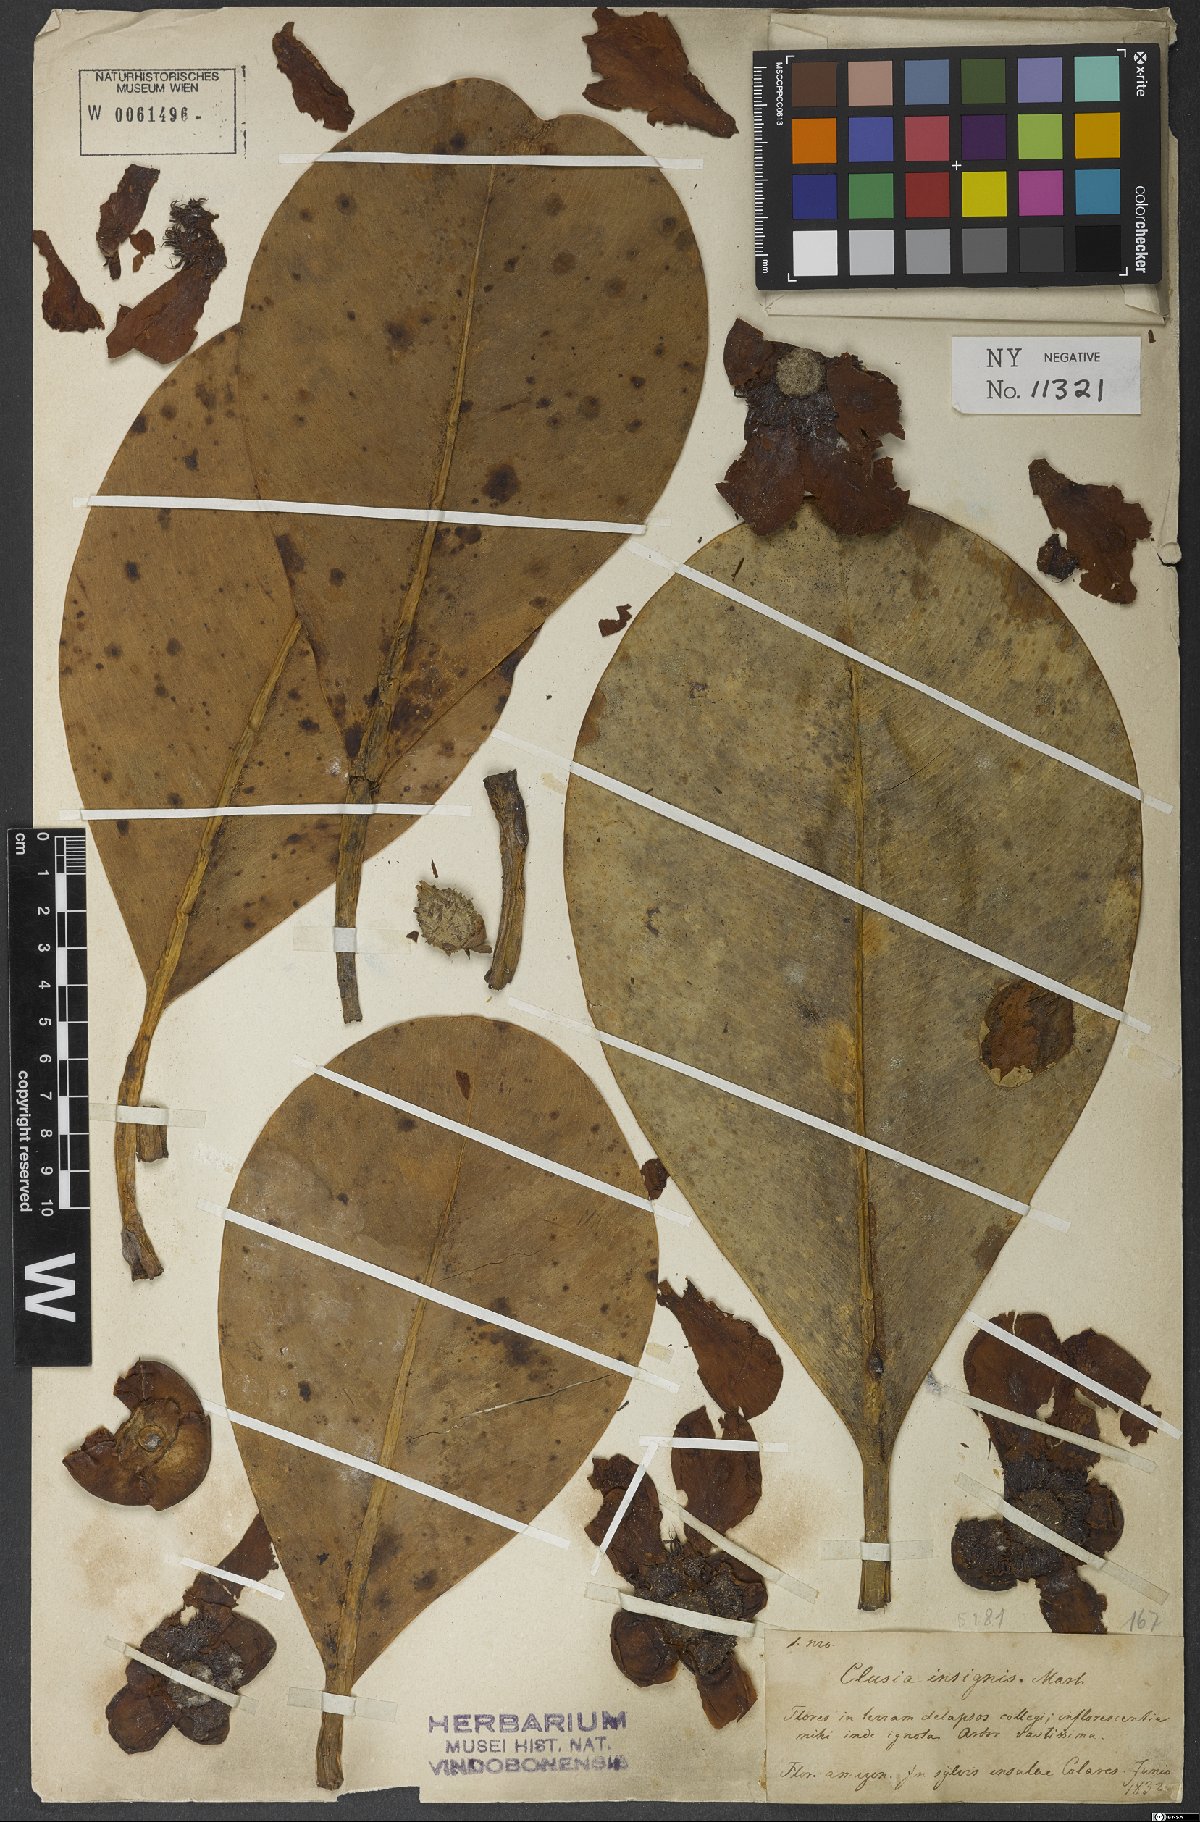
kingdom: Plantae
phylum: Tracheophyta
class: Magnoliopsida
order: Malpighiales
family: Clusiaceae
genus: Clusia
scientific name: Clusia insignis
